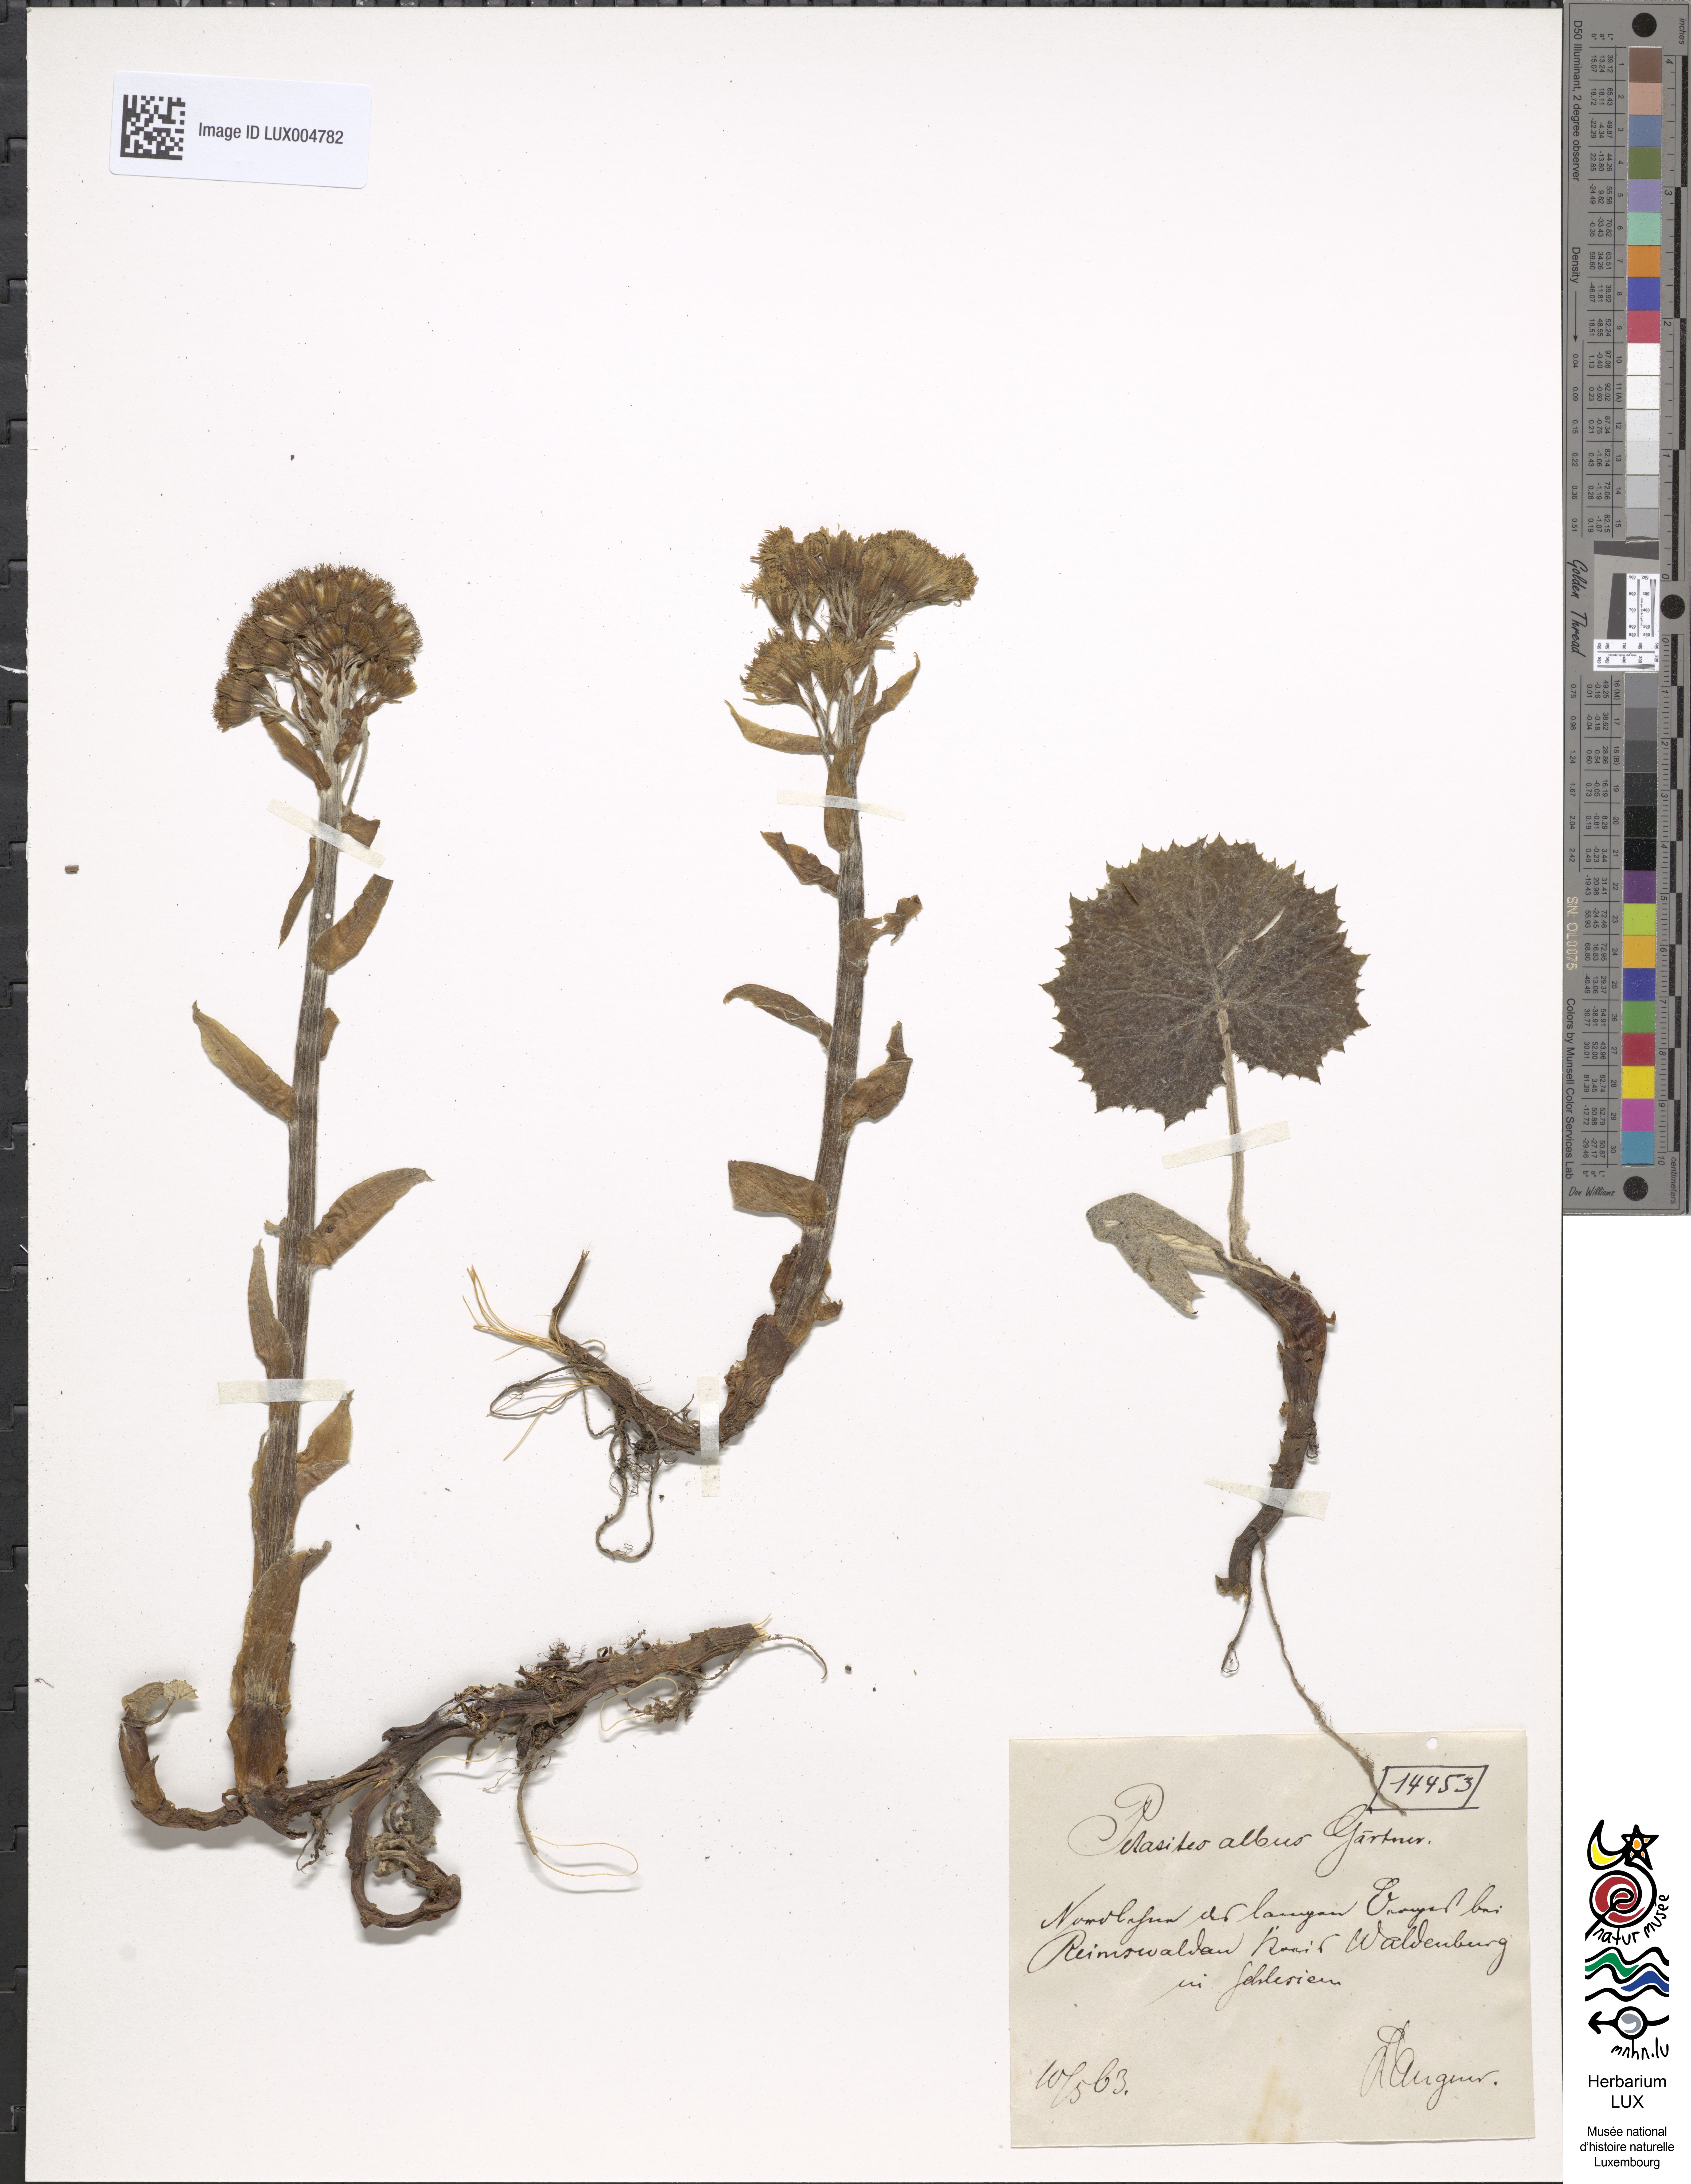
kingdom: Plantae
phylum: Tracheophyta
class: Magnoliopsida
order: Asterales
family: Asteraceae
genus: Petasites
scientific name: Petasites albus
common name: White butterbur
